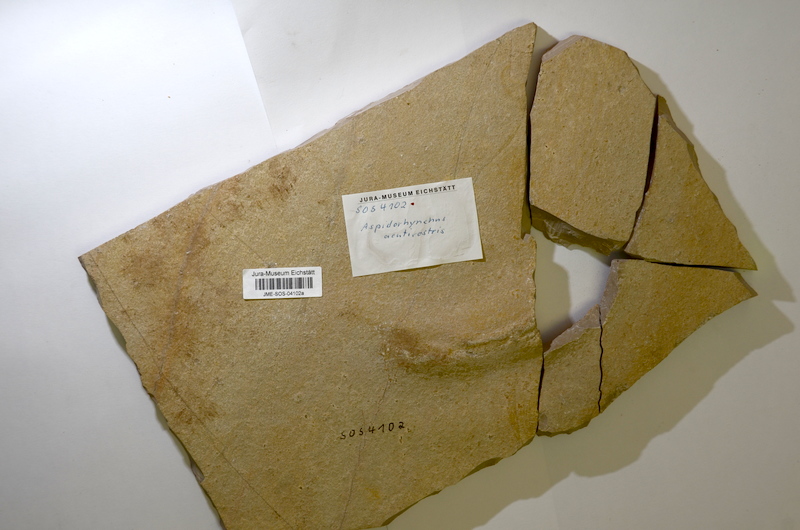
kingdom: Animalia
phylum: Chordata
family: Aspidorhynchidae
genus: Aspidorhynchus
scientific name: Aspidorhynchus acutirostris
